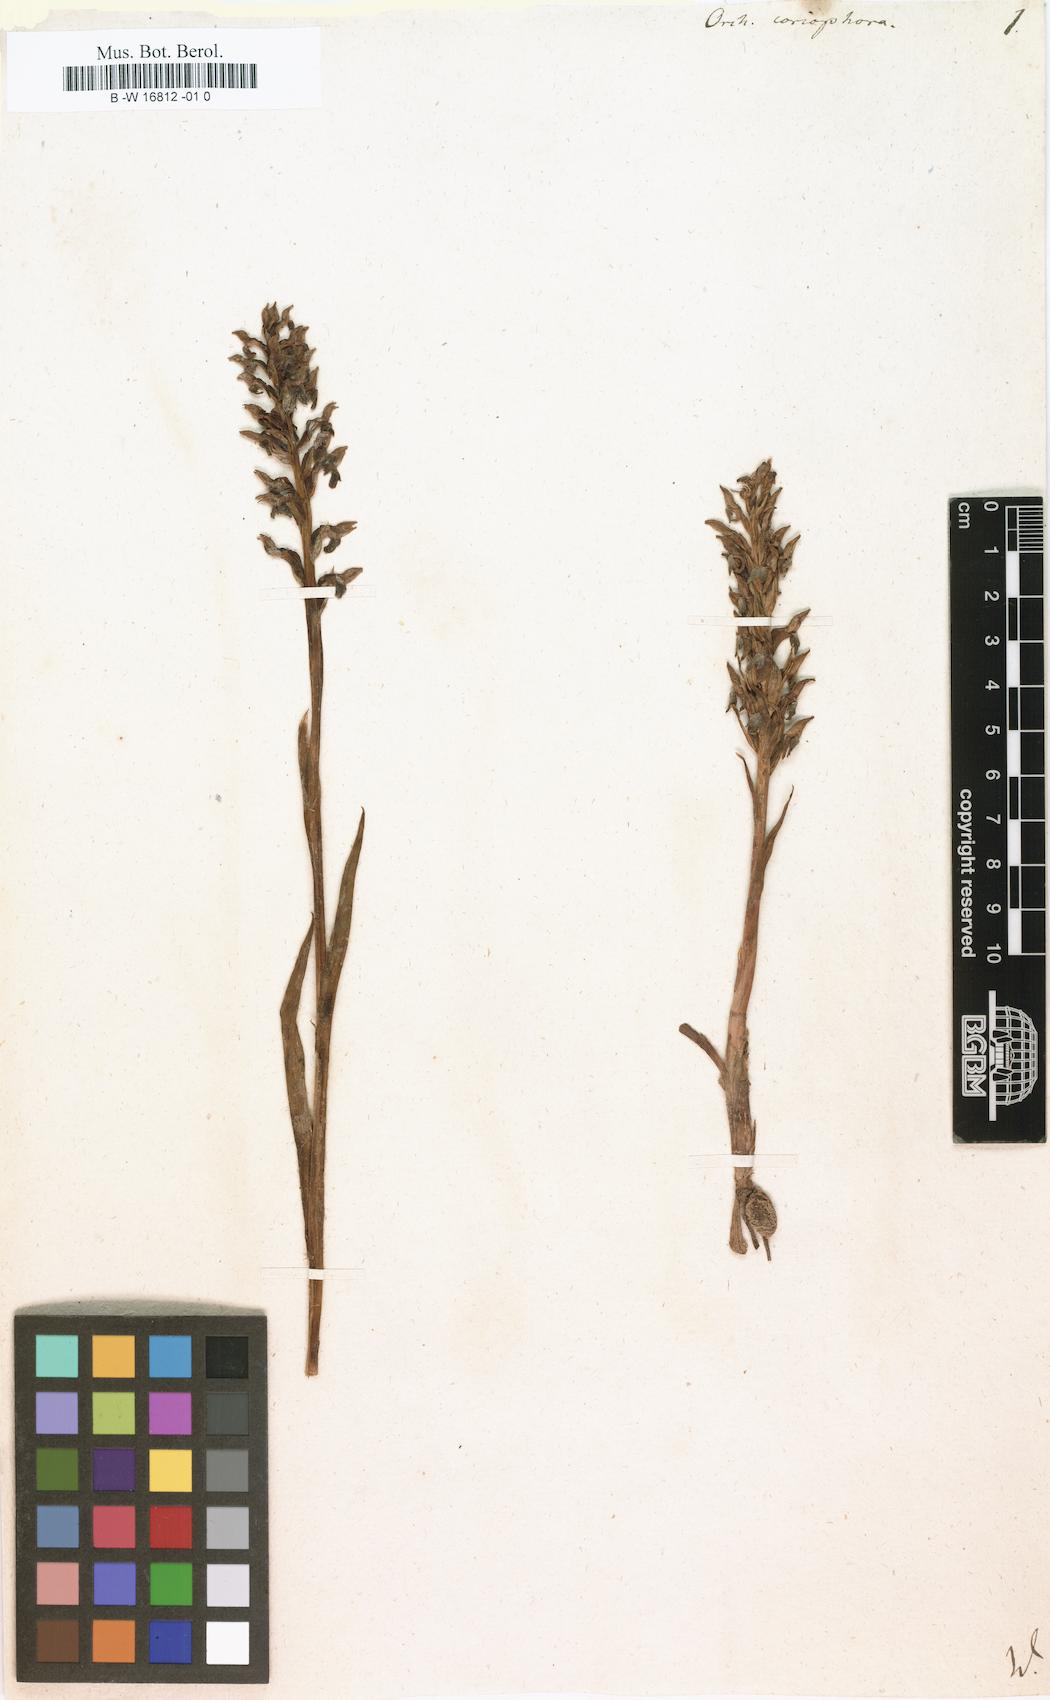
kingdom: Plantae
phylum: Tracheophyta
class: Liliopsida
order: Asparagales
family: Orchidaceae
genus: Anacamptis
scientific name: Anacamptis coriophora
